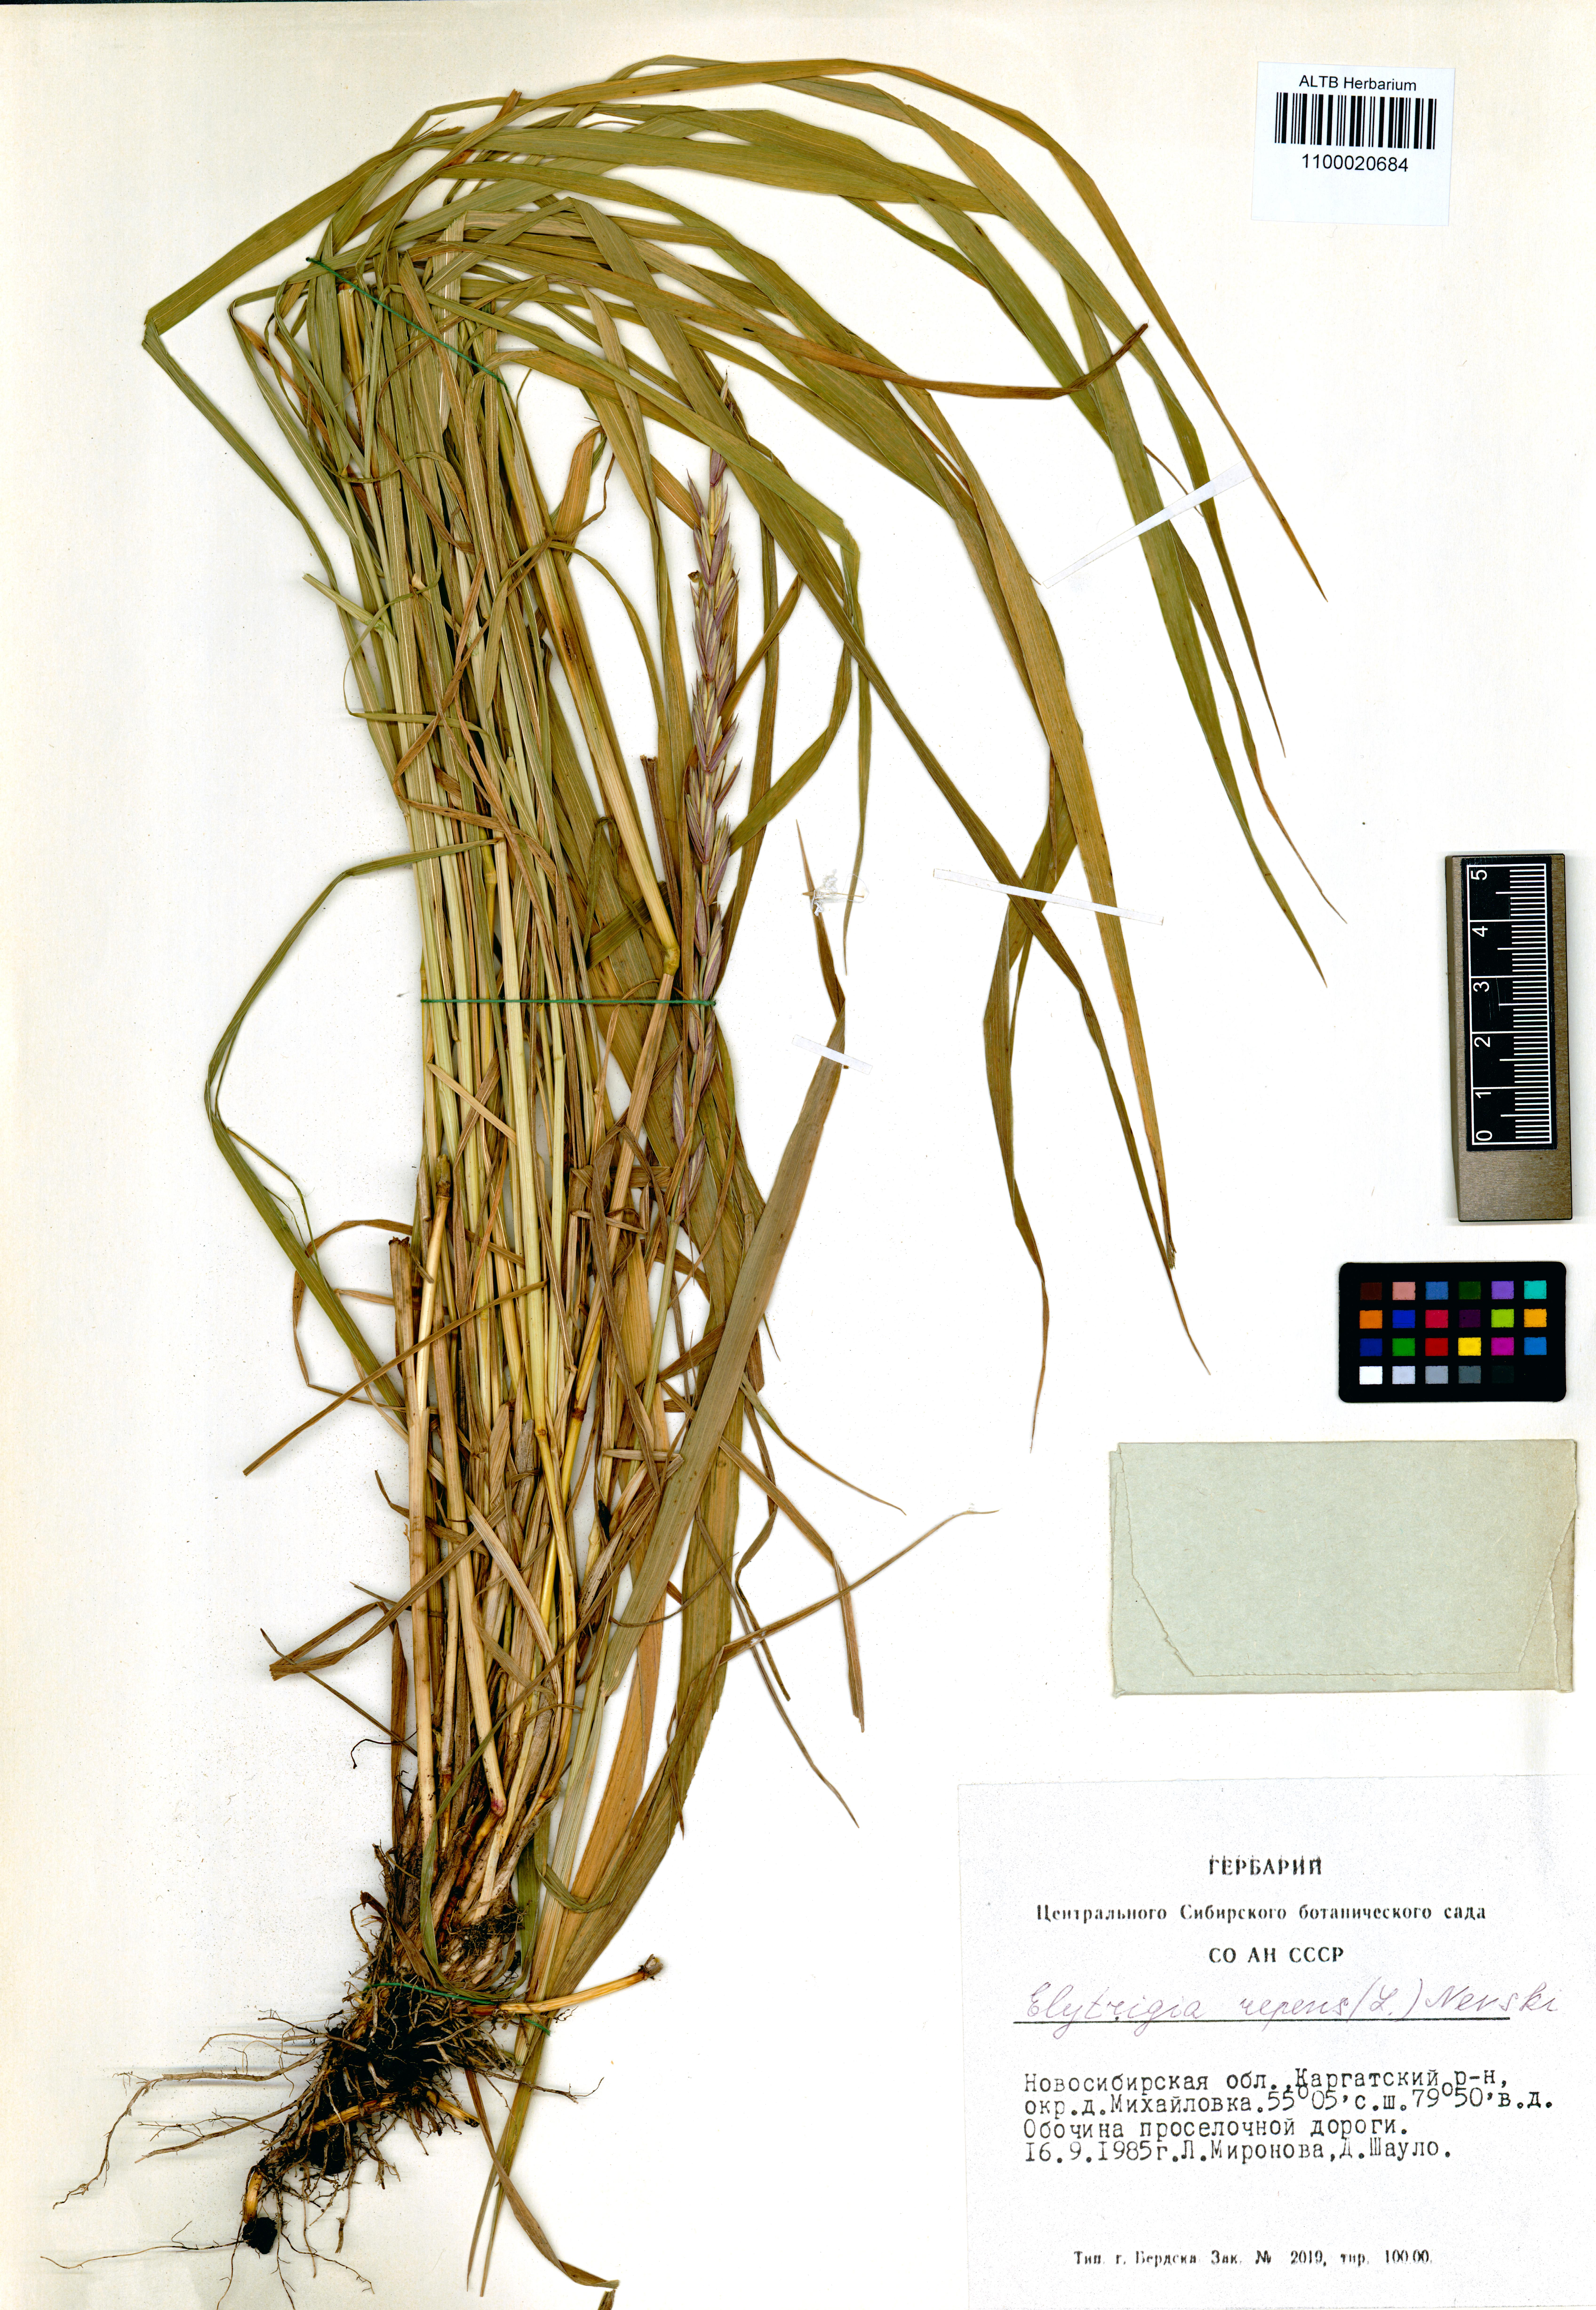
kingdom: Plantae
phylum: Tracheophyta
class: Liliopsida
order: Poales
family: Poaceae
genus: Elymus
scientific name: Elymus repens
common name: Quackgrass
